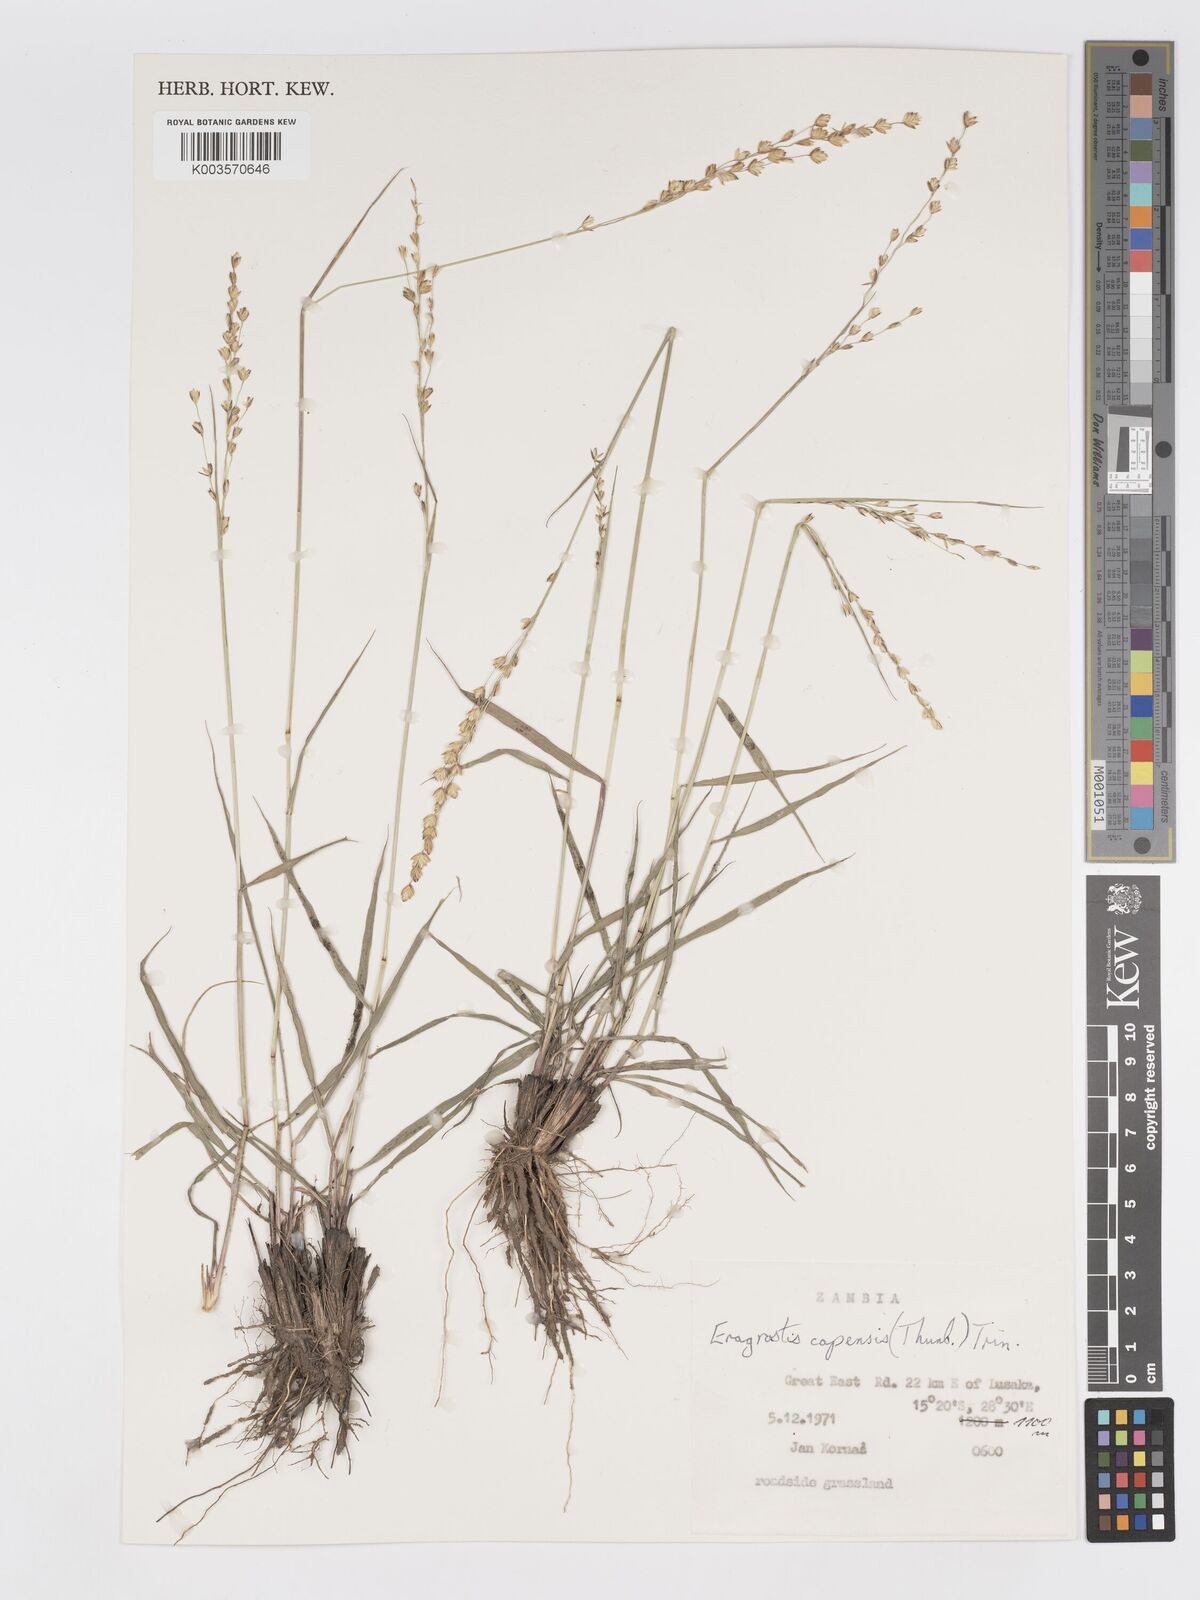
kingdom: Plantae
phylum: Tracheophyta
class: Liliopsida
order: Poales
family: Poaceae
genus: Eragrostis
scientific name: Eragrostis capensis
